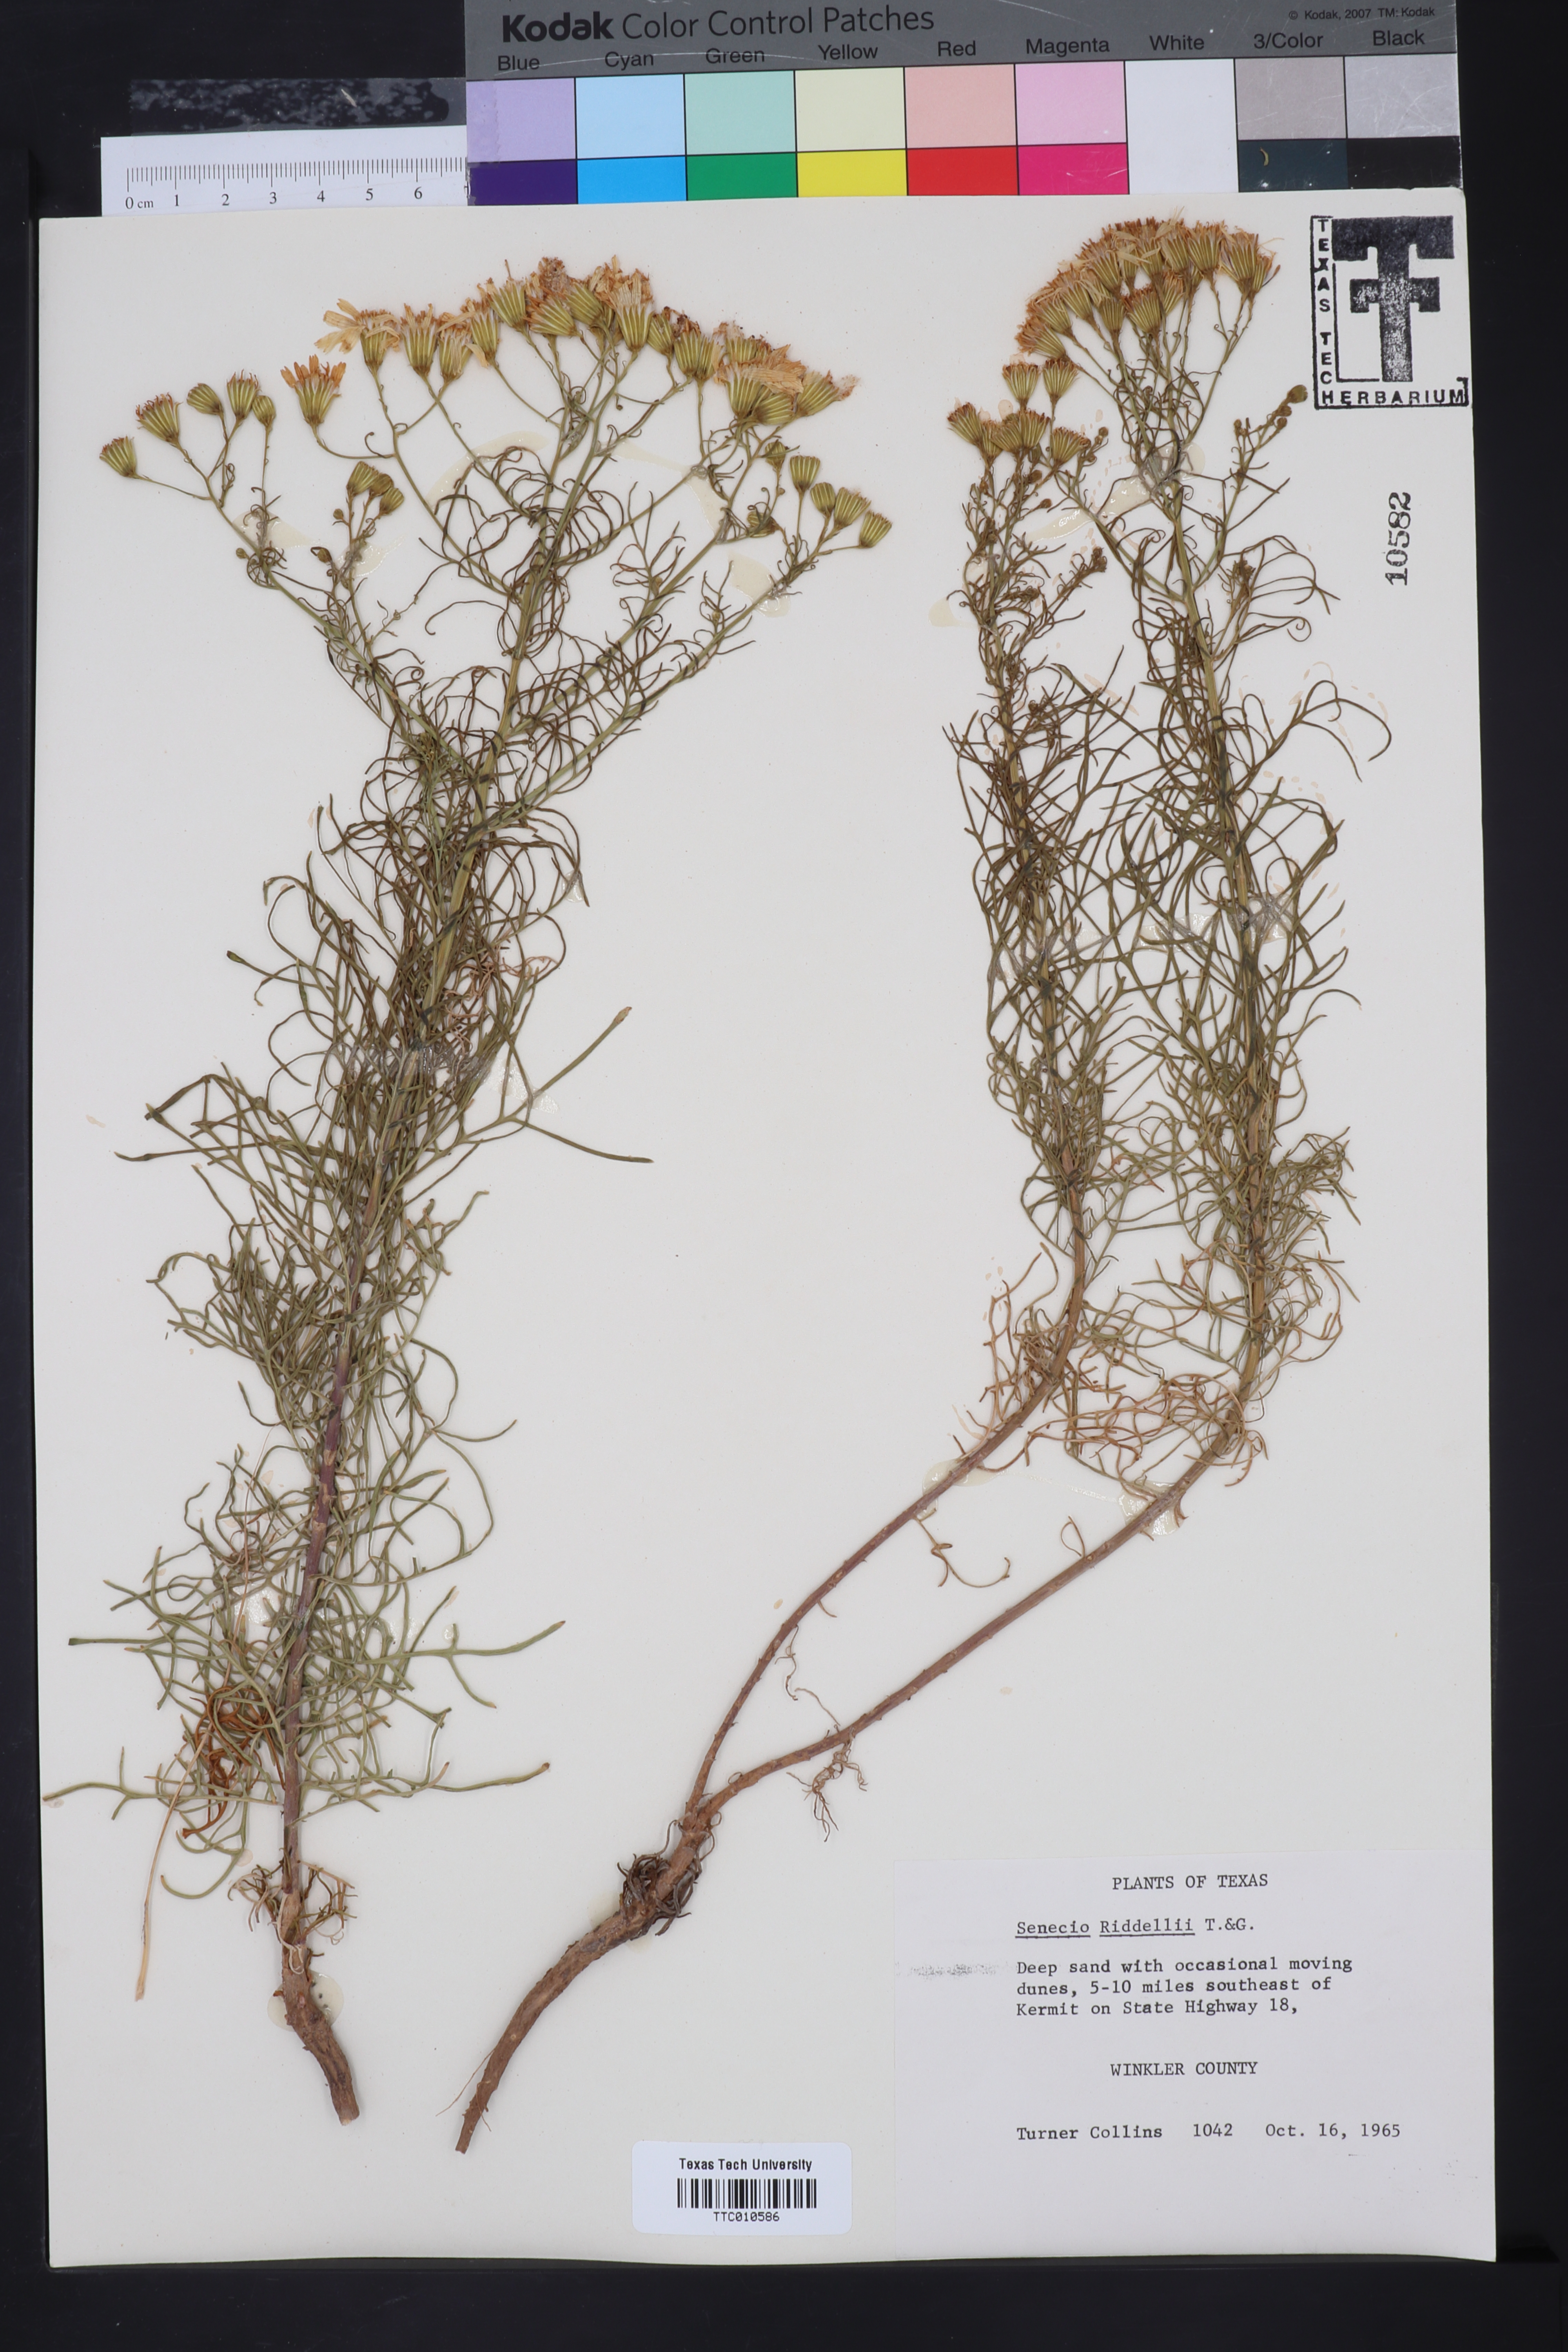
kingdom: Plantae
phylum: Tracheophyta
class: Magnoliopsida
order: Asterales
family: Asteraceae
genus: Senecio
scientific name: Senecio riddellii
